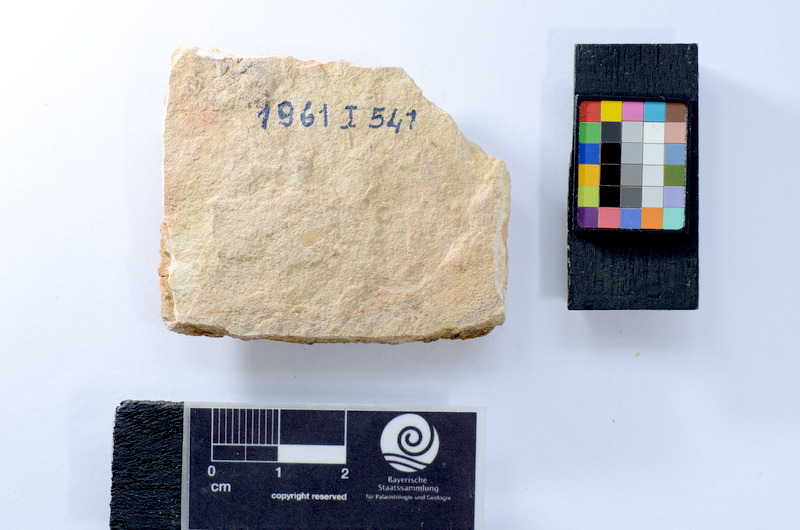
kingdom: Animalia
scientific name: Animalia
